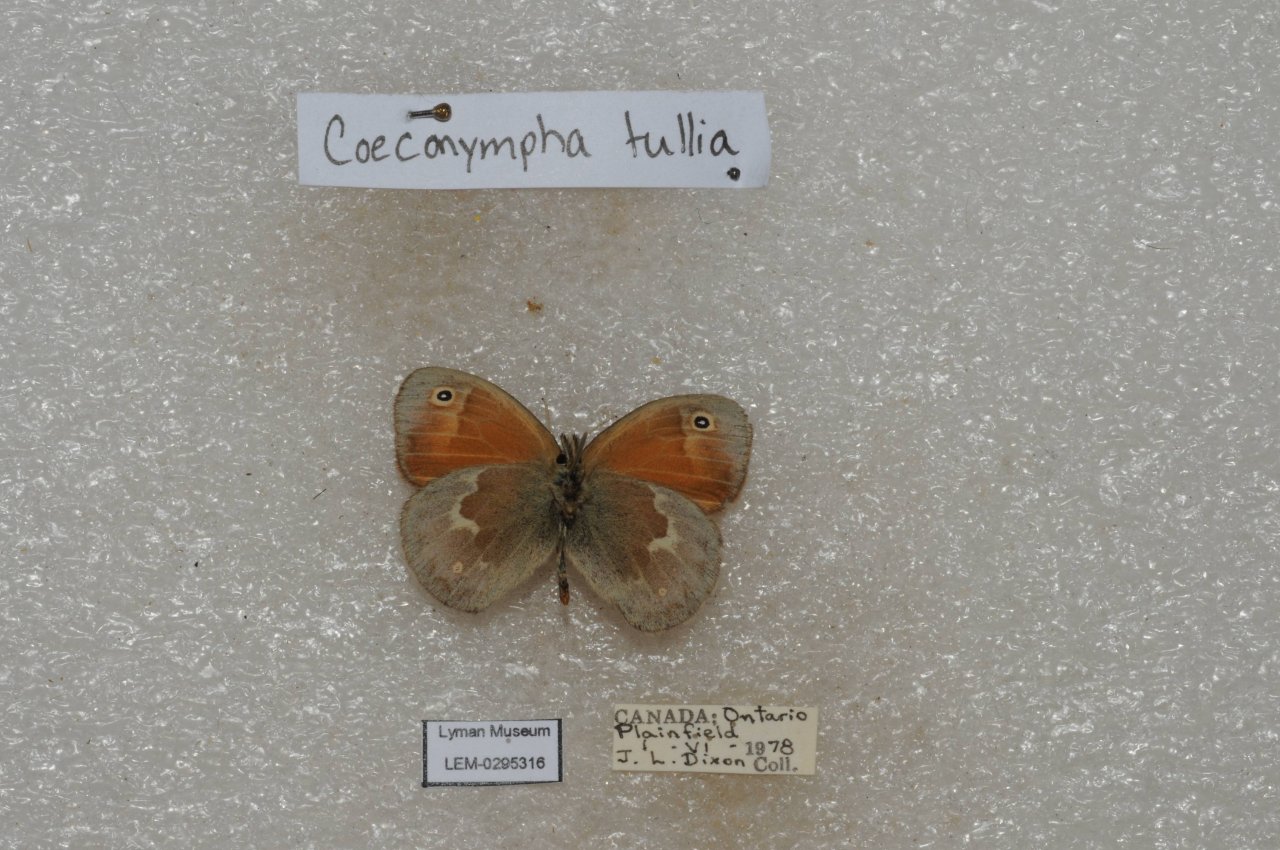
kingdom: Animalia
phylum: Arthropoda
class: Insecta
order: Lepidoptera
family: Nymphalidae
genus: Coenonympha
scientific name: Coenonympha tullia
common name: Large Heath
